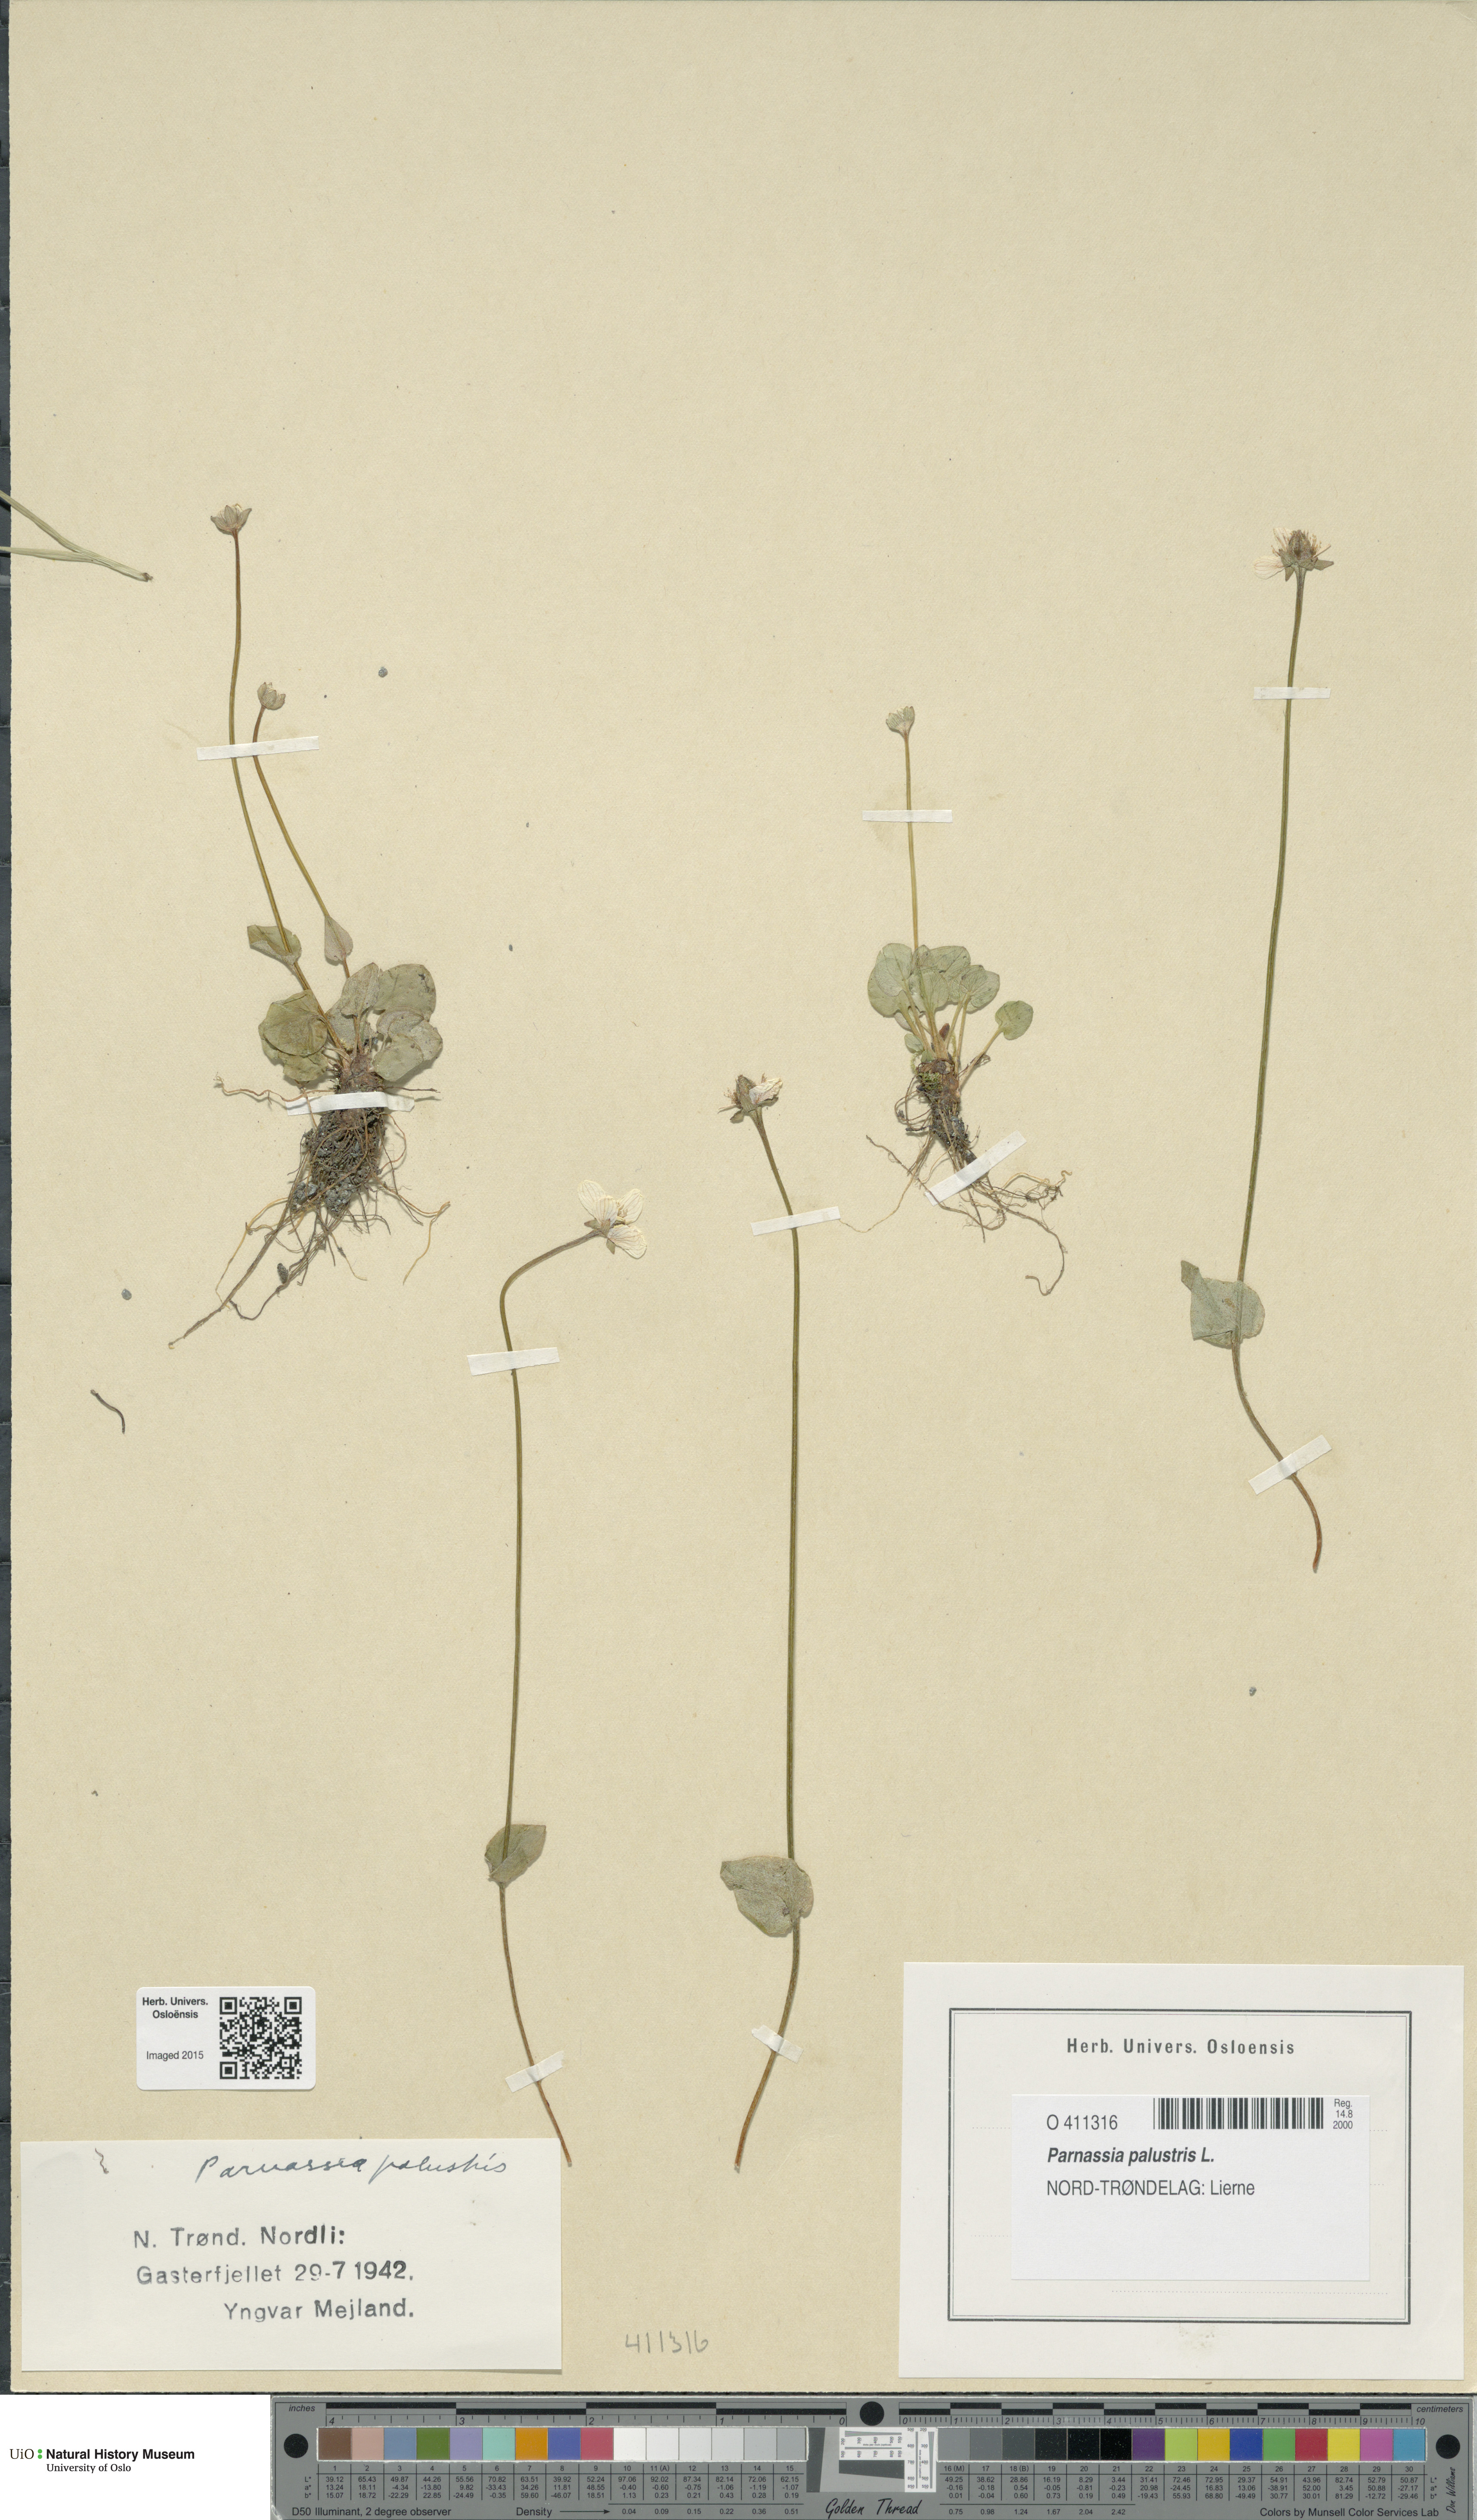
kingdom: Plantae
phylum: Tracheophyta
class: Magnoliopsida
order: Celastrales
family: Parnassiaceae
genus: Parnassia
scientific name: Parnassia palustris
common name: Grass-of-parnassus
